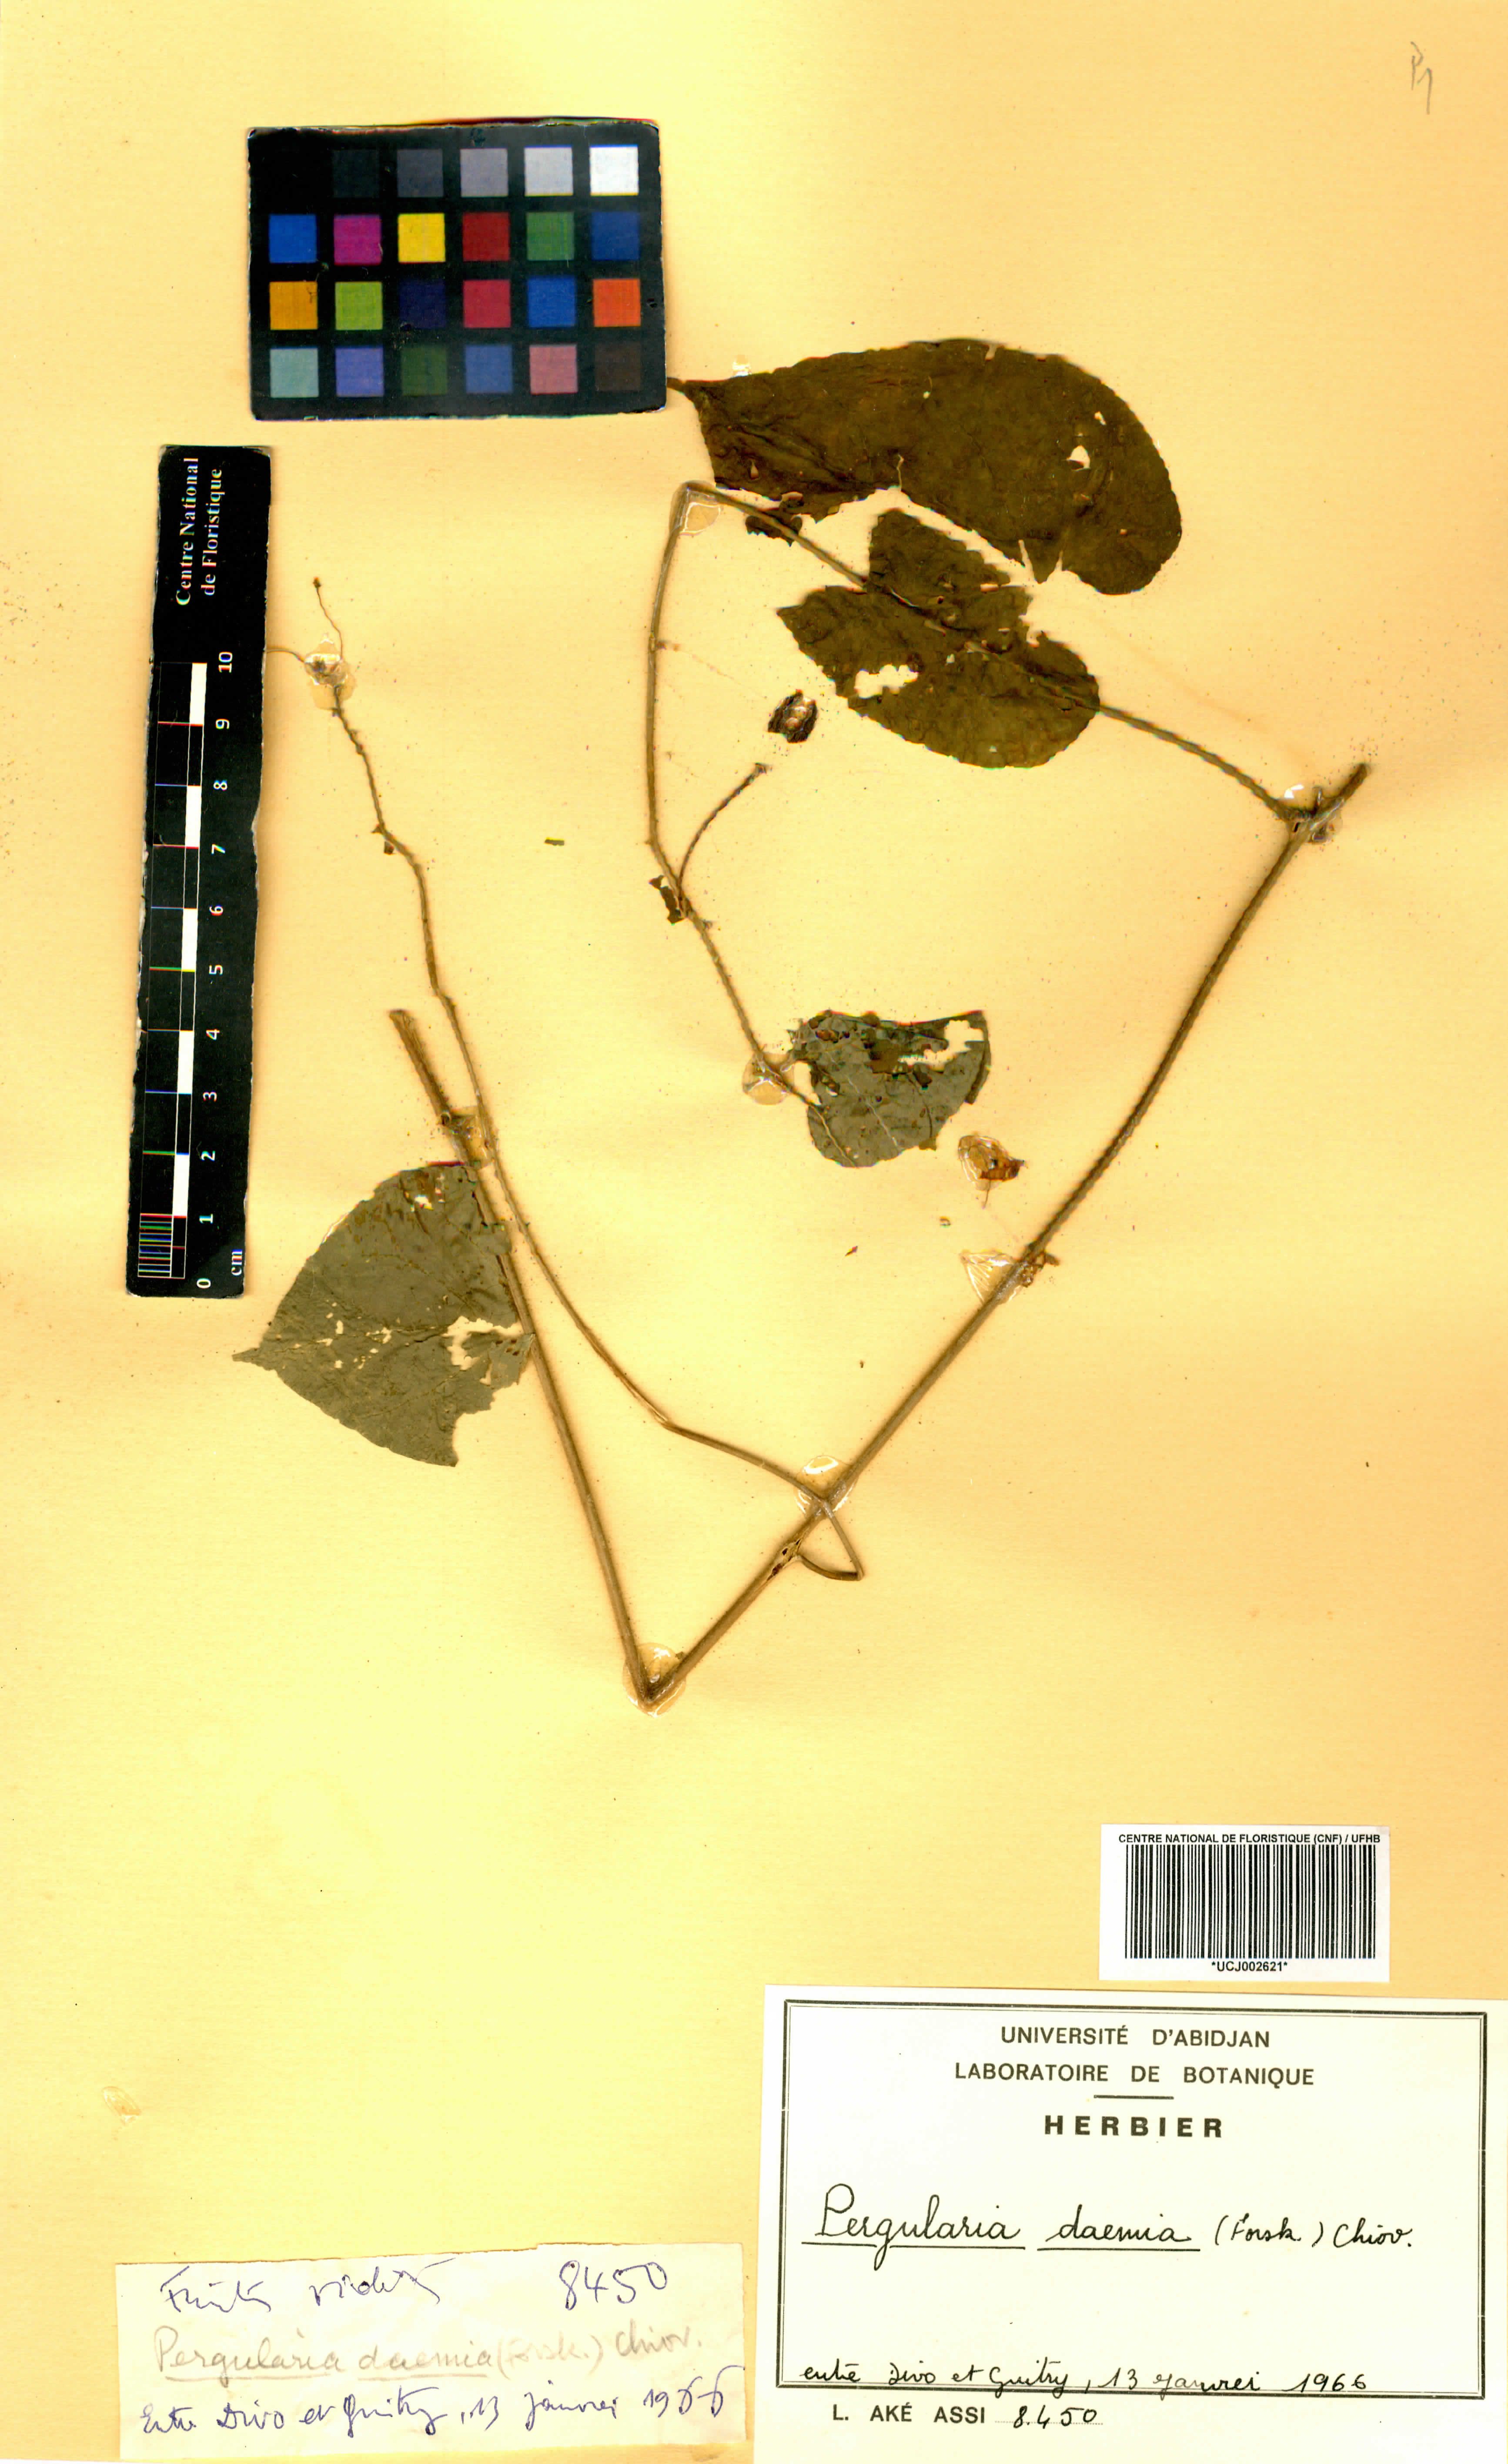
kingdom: Plantae
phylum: Tracheophyta
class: Magnoliopsida
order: Gentianales
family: Apocynaceae
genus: Pergularia
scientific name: Pergularia daemia
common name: Trellis-vine
